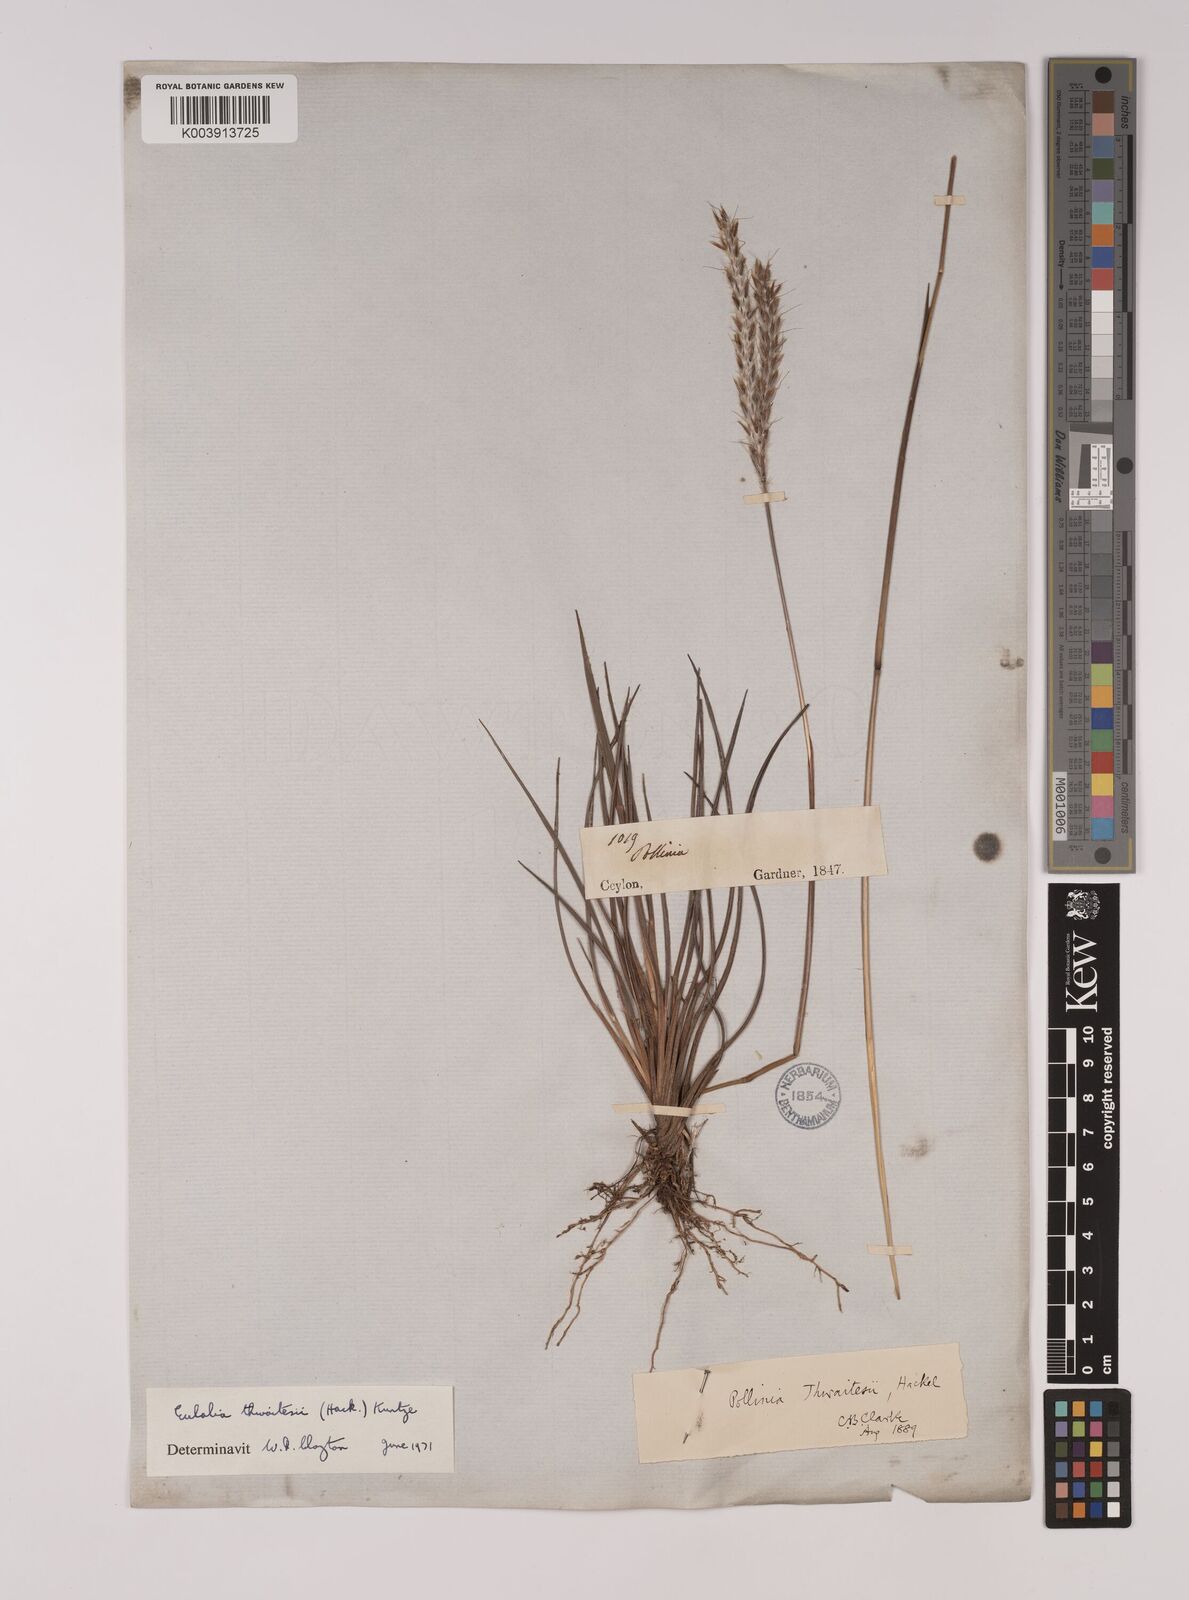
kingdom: Plantae
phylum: Tracheophyta
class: Liliopsida
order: Poales
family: Poaceae
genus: Eulalia
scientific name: Eulalia thwaitesii
